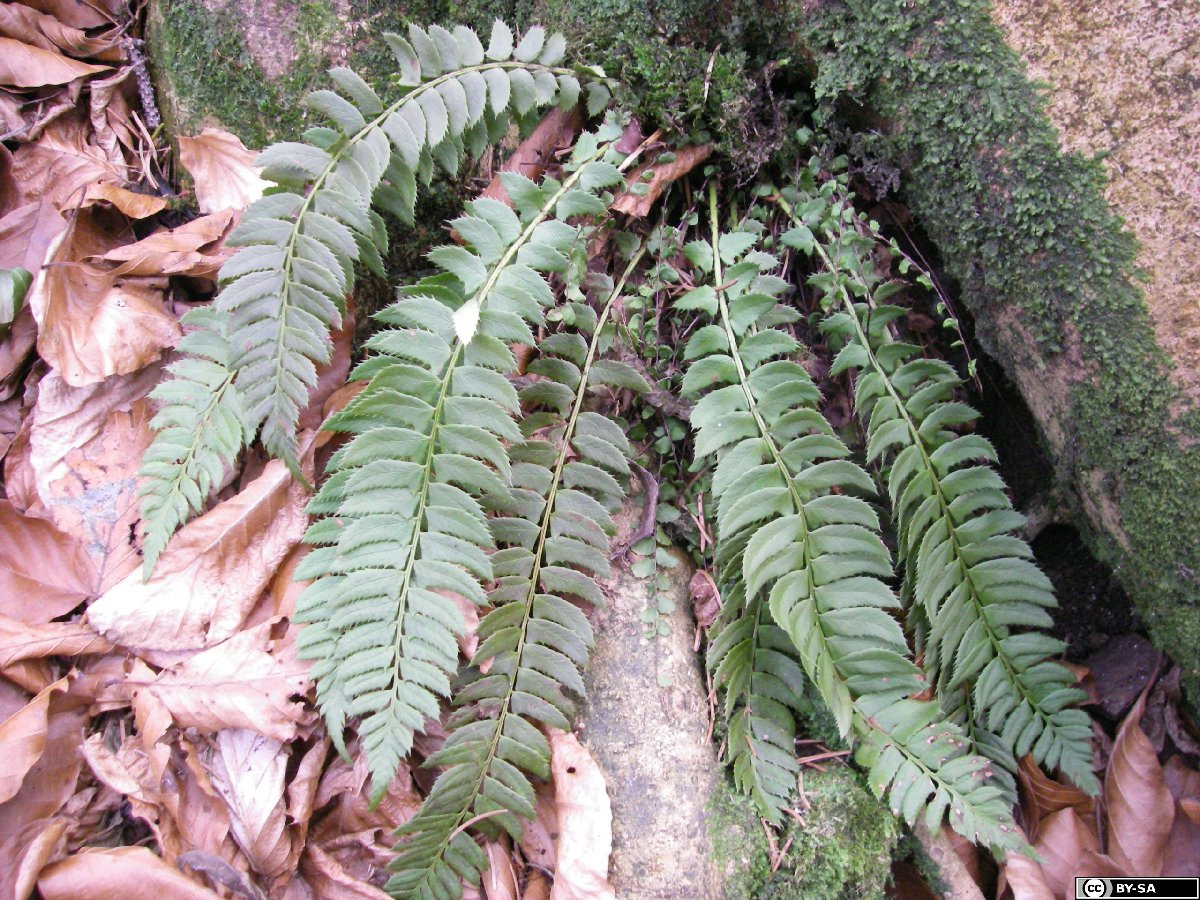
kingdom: Plantae
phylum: Tracheophyta
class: Polypodiopsida
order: Polypodiales
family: Dryopteridaceae
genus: Polystichum
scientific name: Polystichum lonchitis
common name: Holly fern
